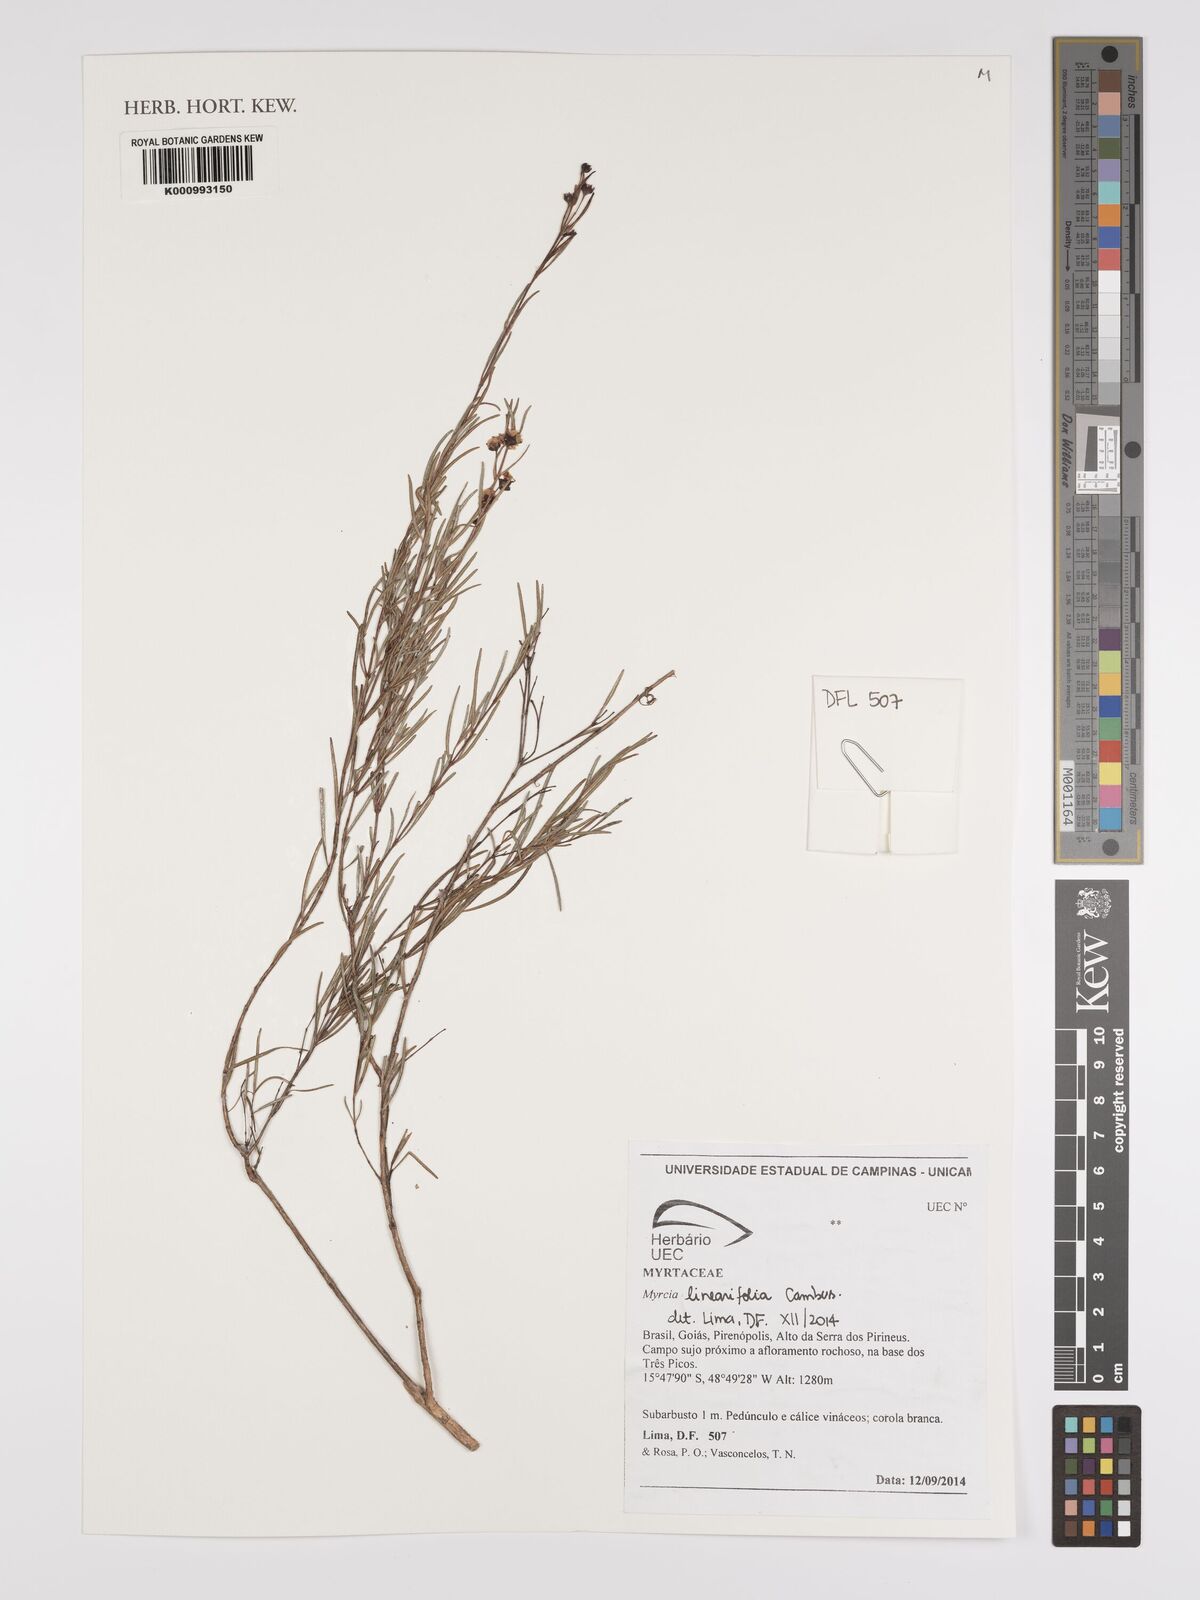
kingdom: Plantae
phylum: Tracheophyta
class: Magnoliopsida
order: Myrtales
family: Myrtaceae
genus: Myrcia
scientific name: Myrcia linearifolia
